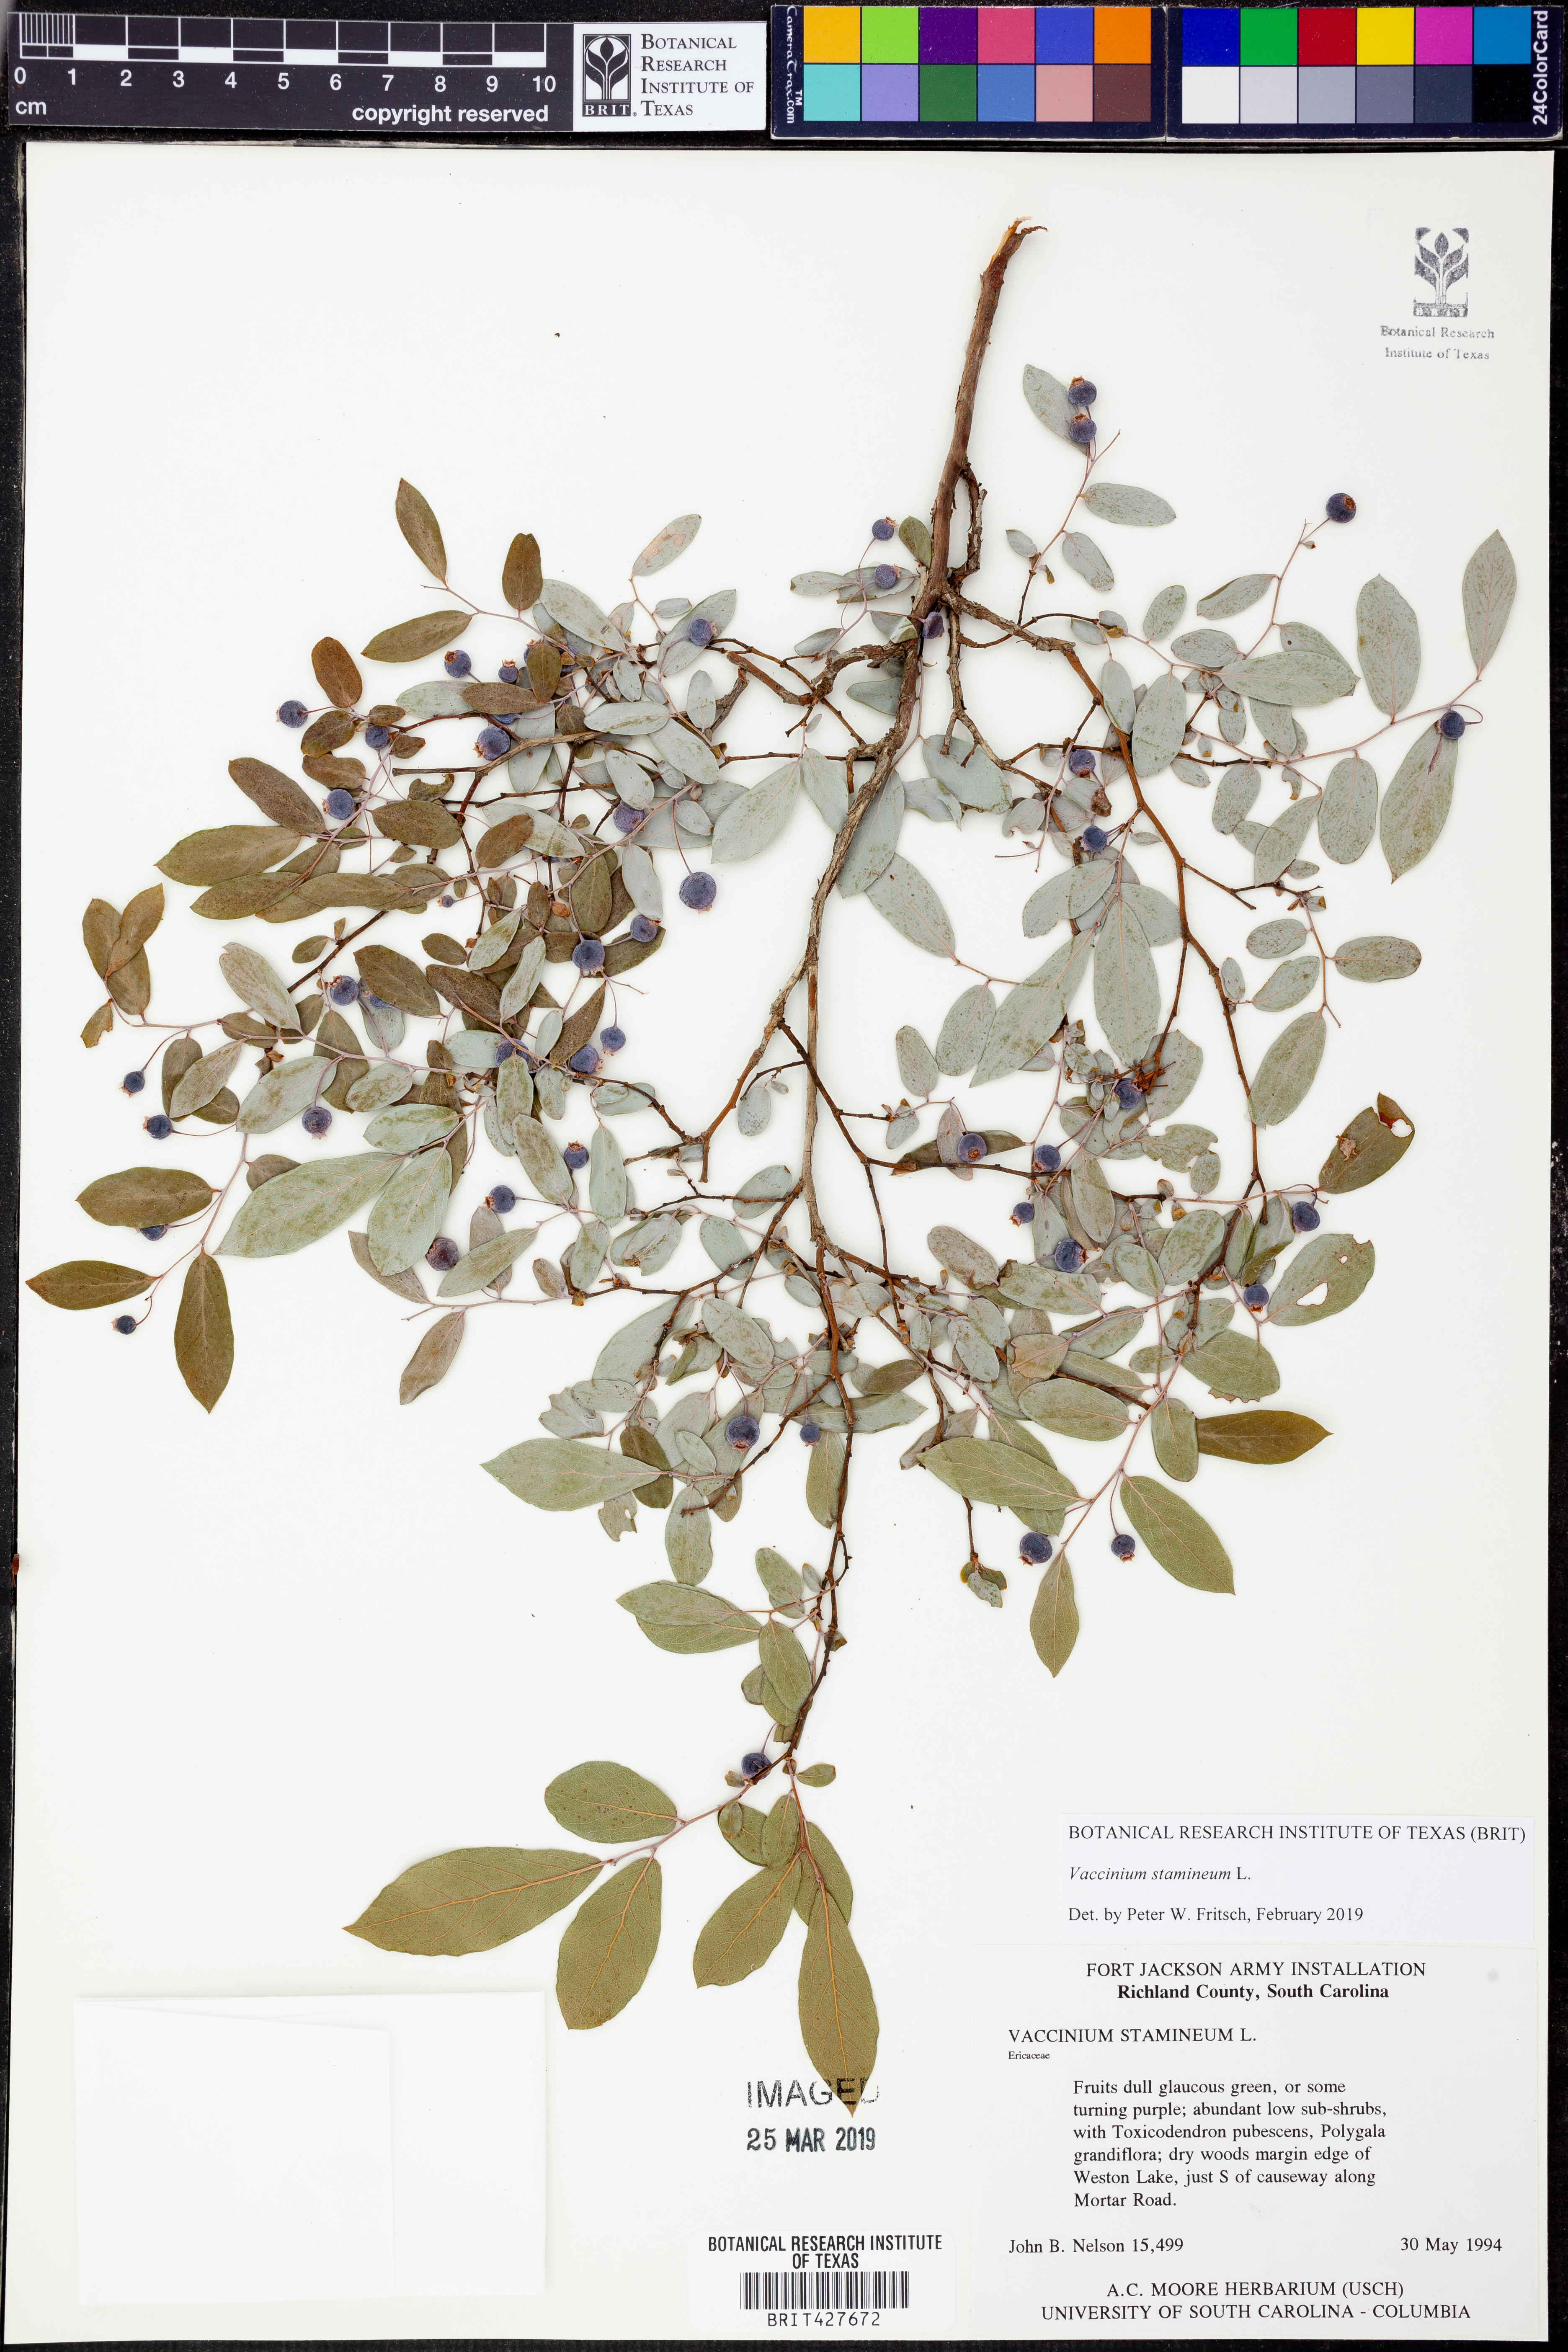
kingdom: Plantae
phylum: Tracheophyta
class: Magnoliopsida
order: Ericales
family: Ericaceae
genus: Vaccinium
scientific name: Vaccinium stamineum
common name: Deerberry
